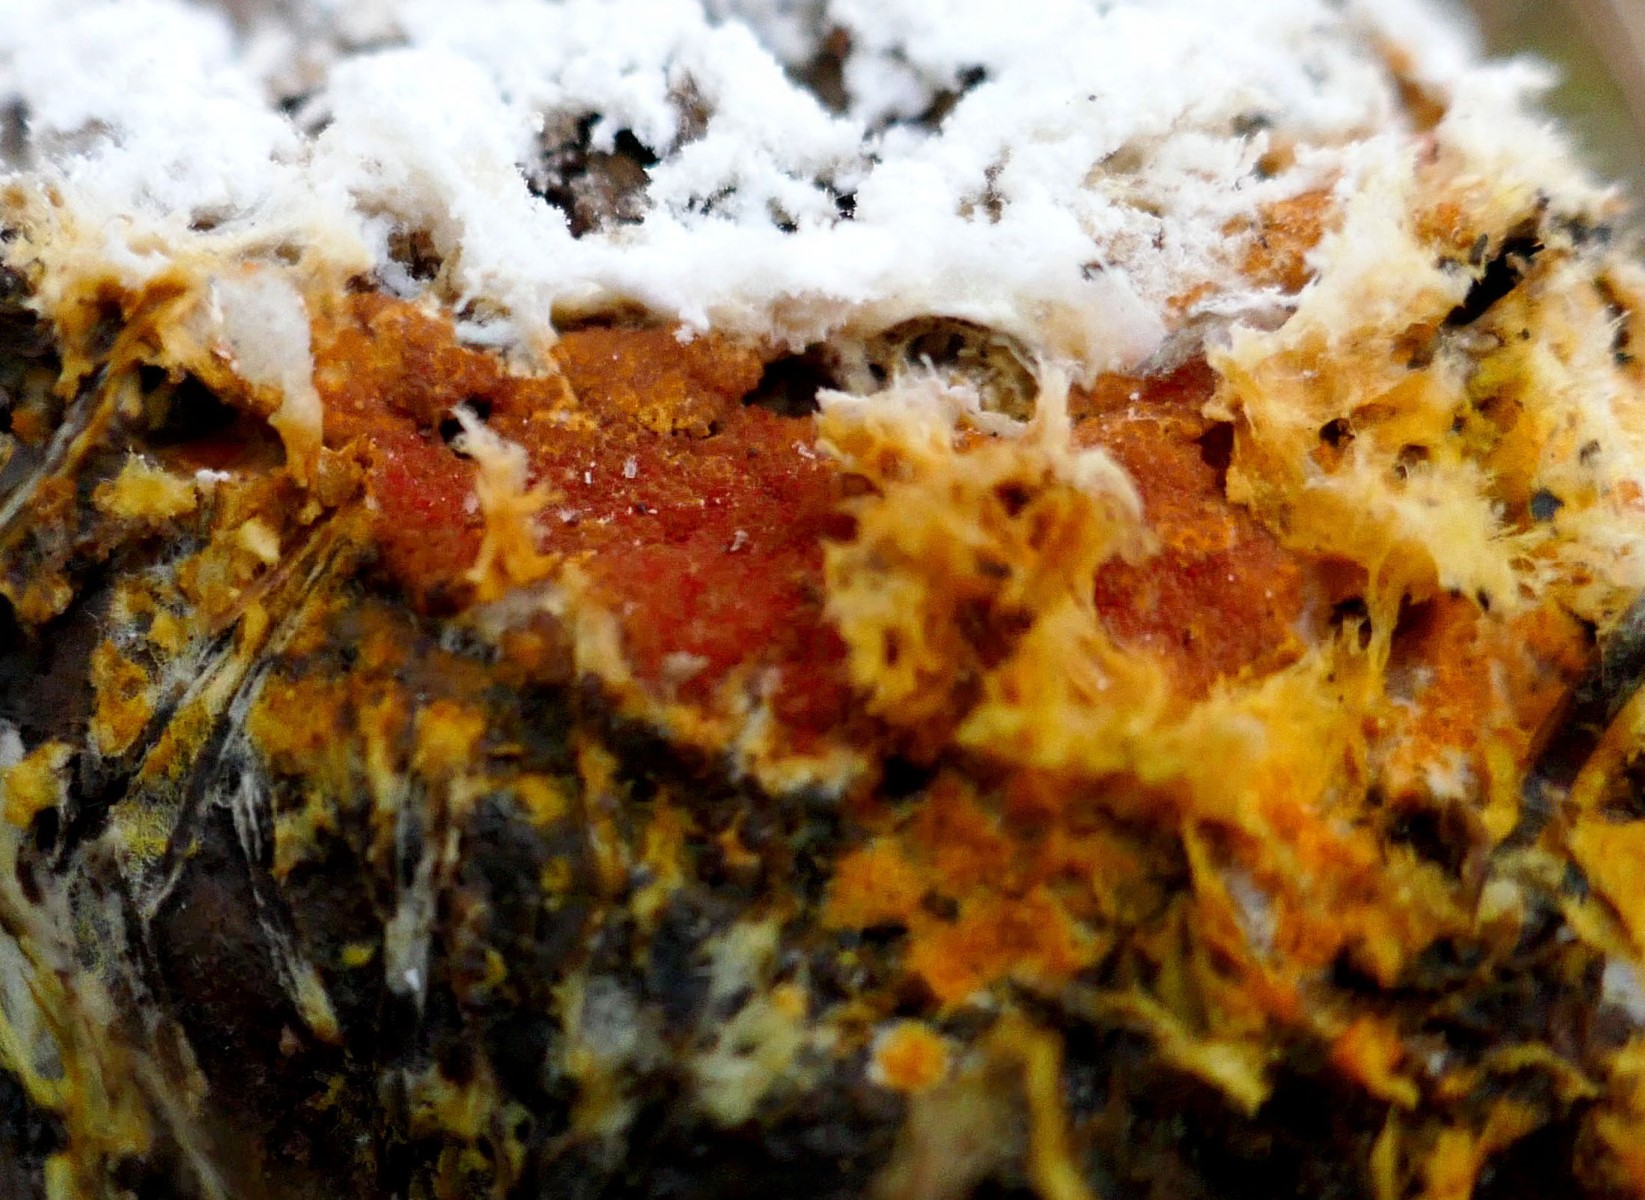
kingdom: Fungi
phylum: Ascomycota
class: Sordariomycetes
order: Hypocreales
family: Hypocreaceae
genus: Hypomyces
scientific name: Hypomyces aurantius
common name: almindelig snylteskorpe
